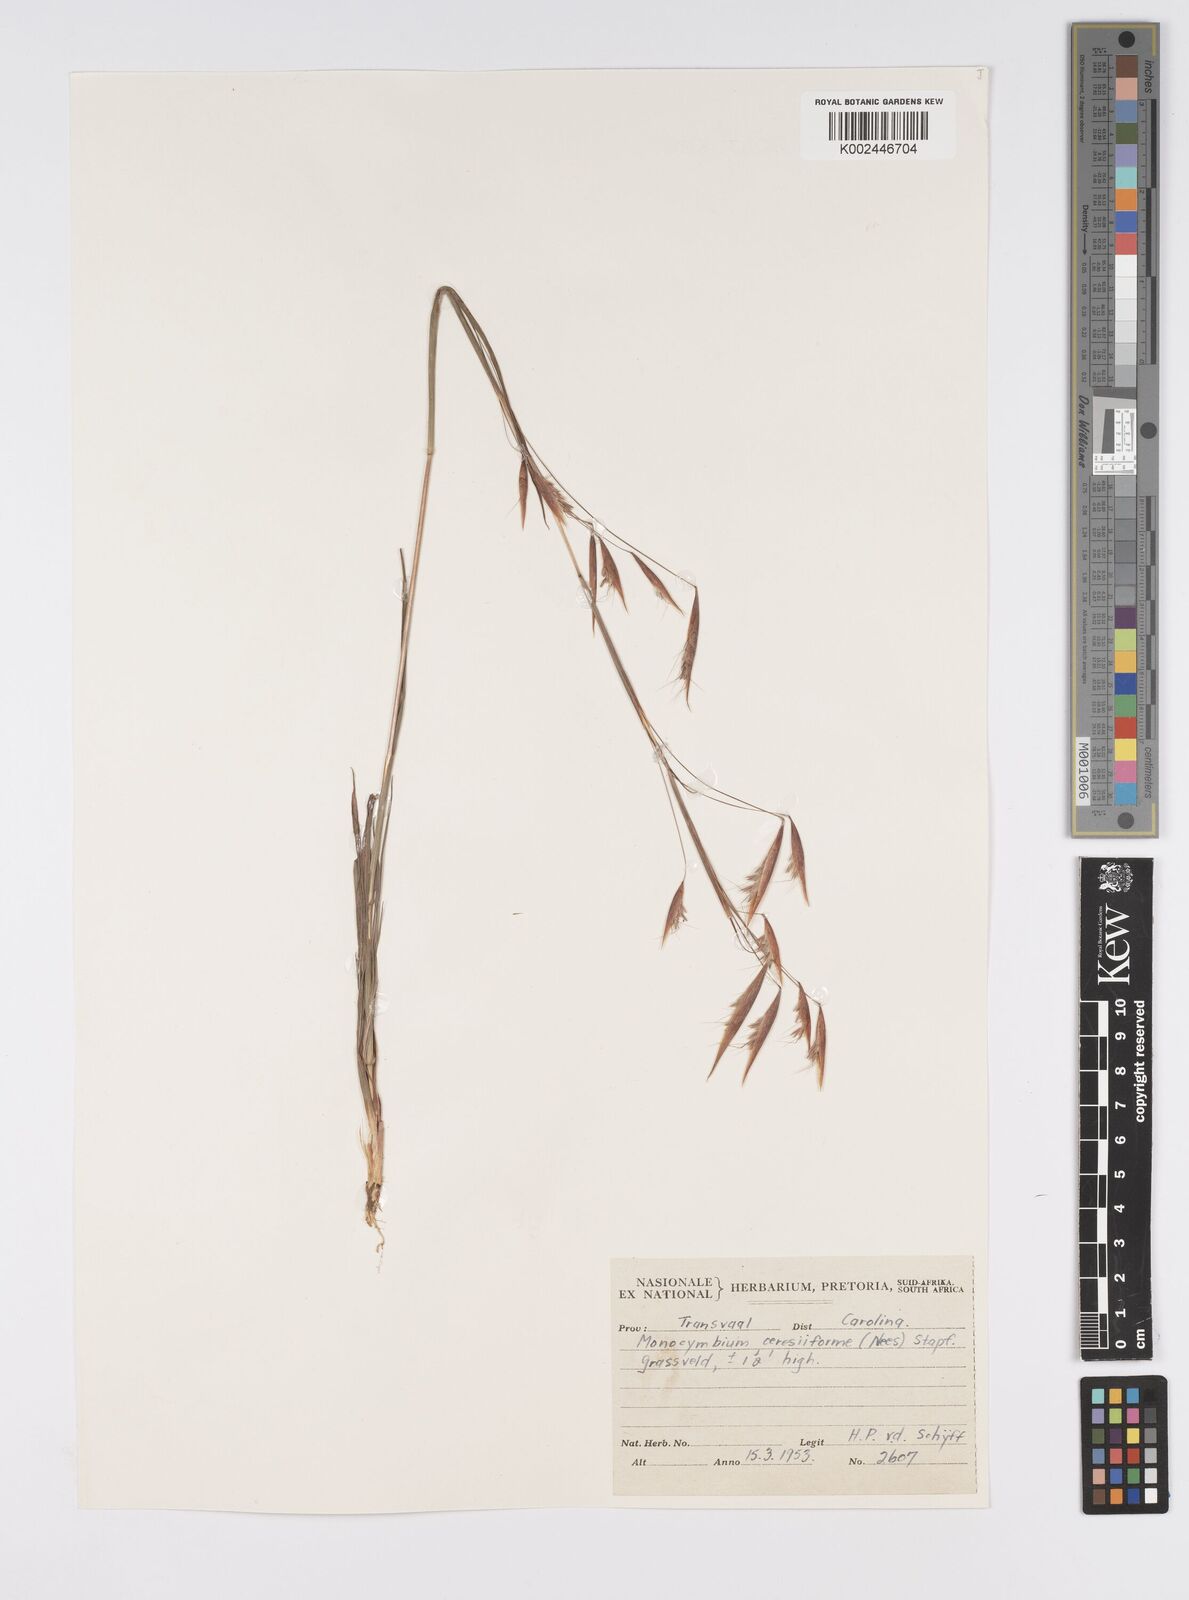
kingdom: Plantae
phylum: Tracheophyta
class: Liliopsida
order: Poales
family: Poaceae
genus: Monocymbium
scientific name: Monocymbium ceresiiforme
